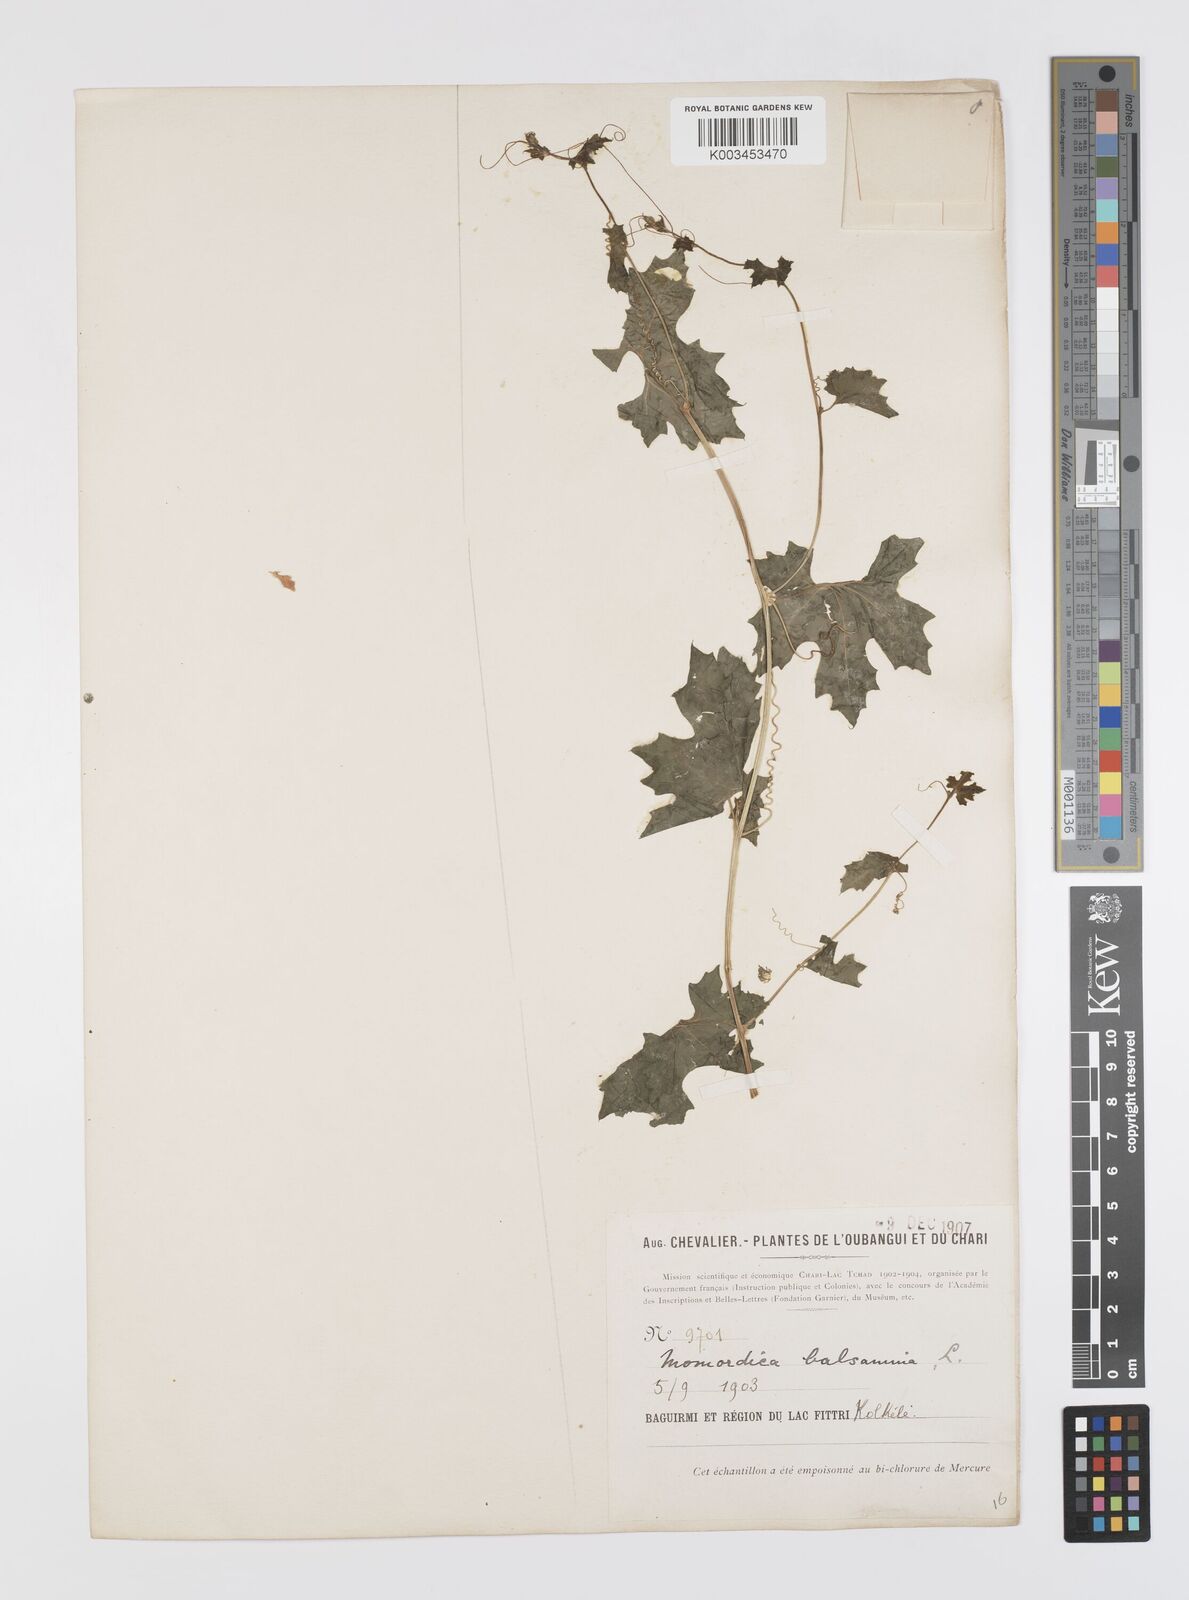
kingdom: Plantae
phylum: Tracheophyta
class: Magnoliopsida
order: Cucurbitales
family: Cucurbitaceae
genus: Momordica
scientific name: Momordica balsamina
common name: Southern balsampear
